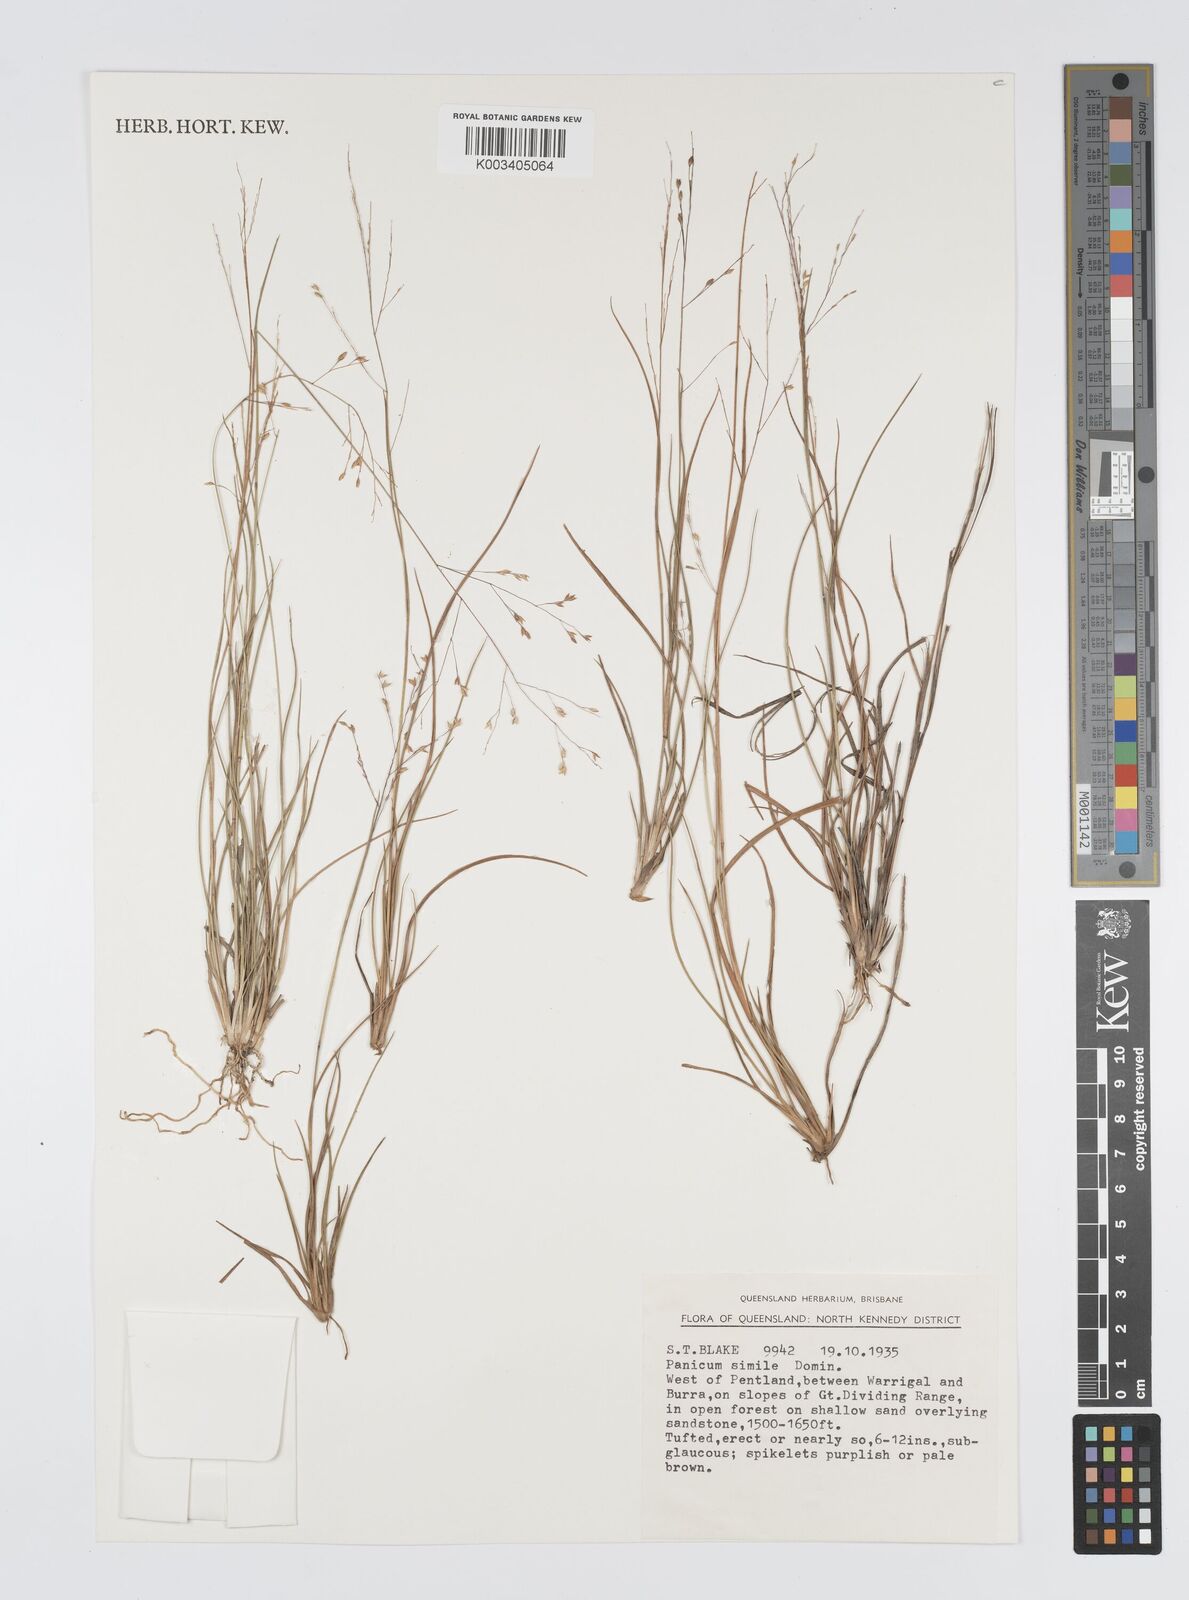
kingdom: Plantae
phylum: Tracheophyta
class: Liliopsida
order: Poales
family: Poaceae
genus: Panicum
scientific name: Panicum simile
